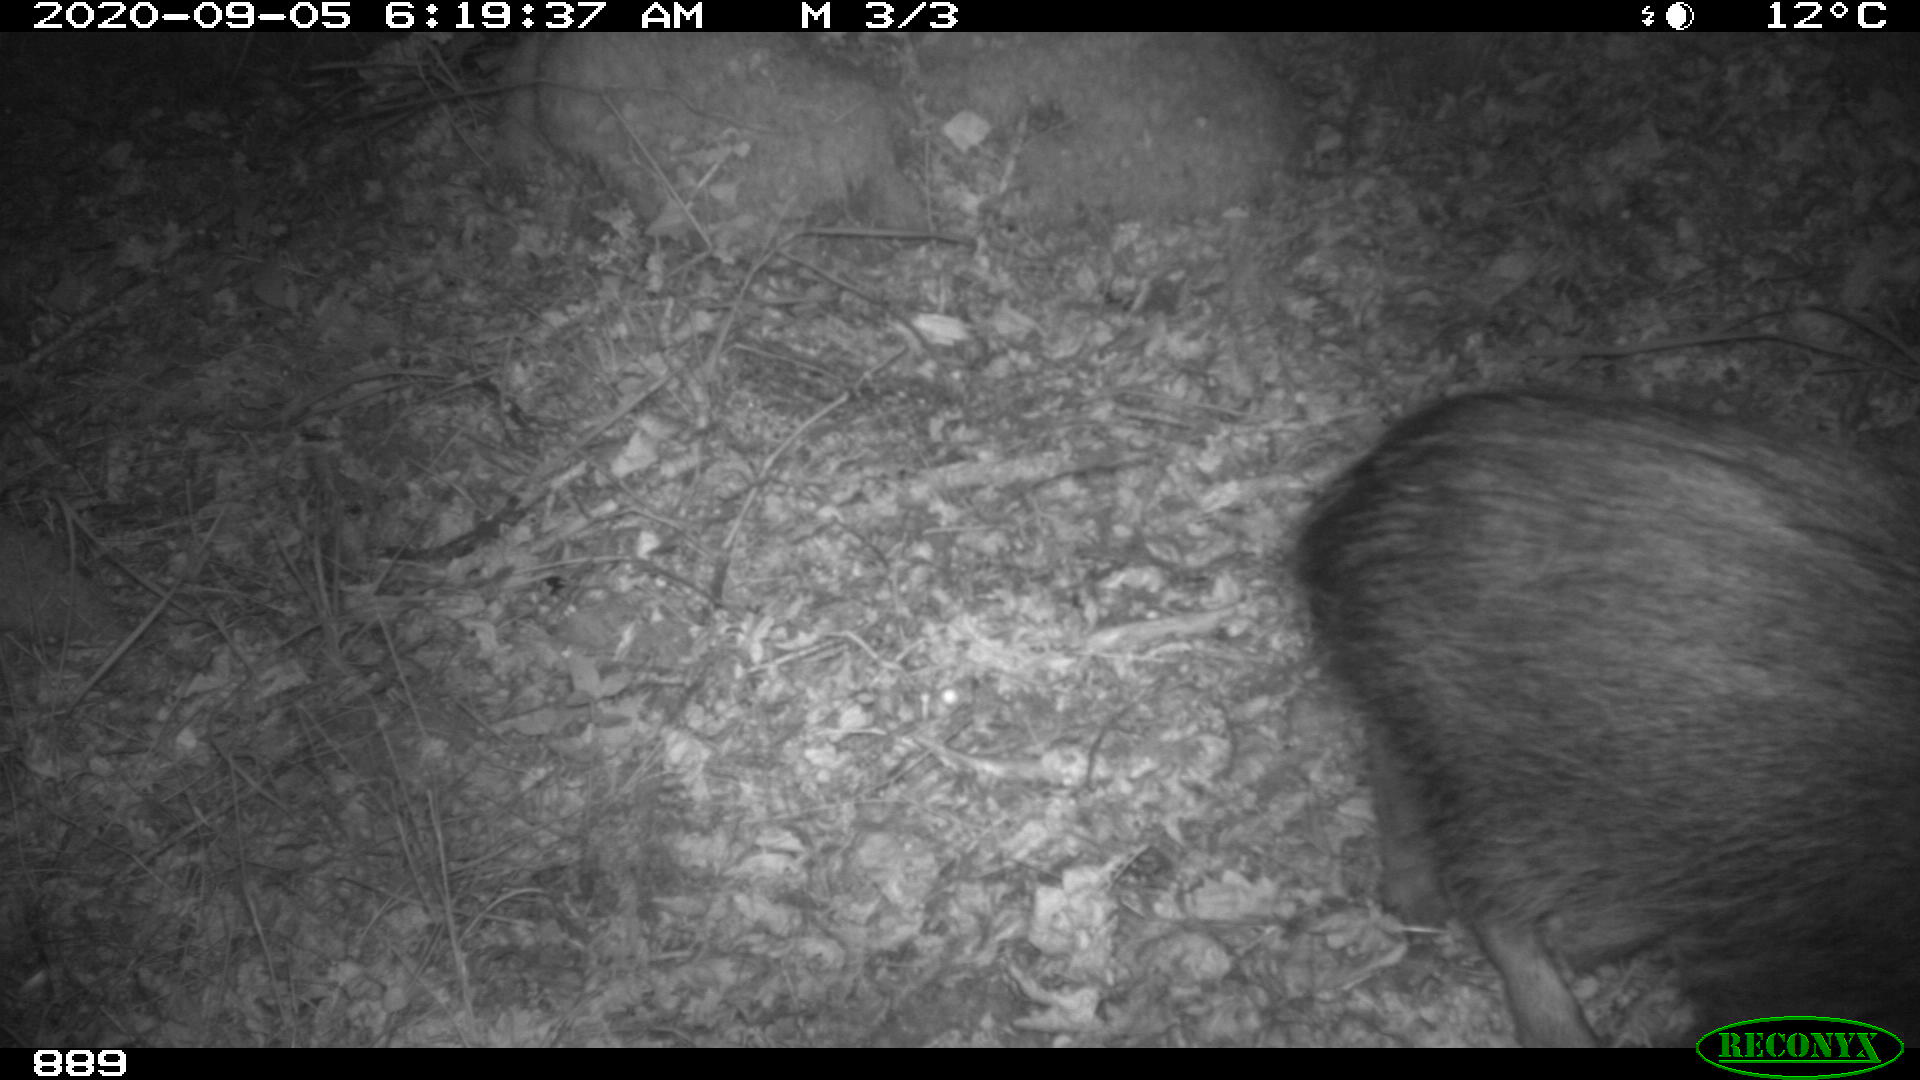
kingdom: Animalia
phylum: Chordata
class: Mammalia
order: Artiodactyla
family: Suidae
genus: Sus
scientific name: Sus scrofa
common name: Wild boar
